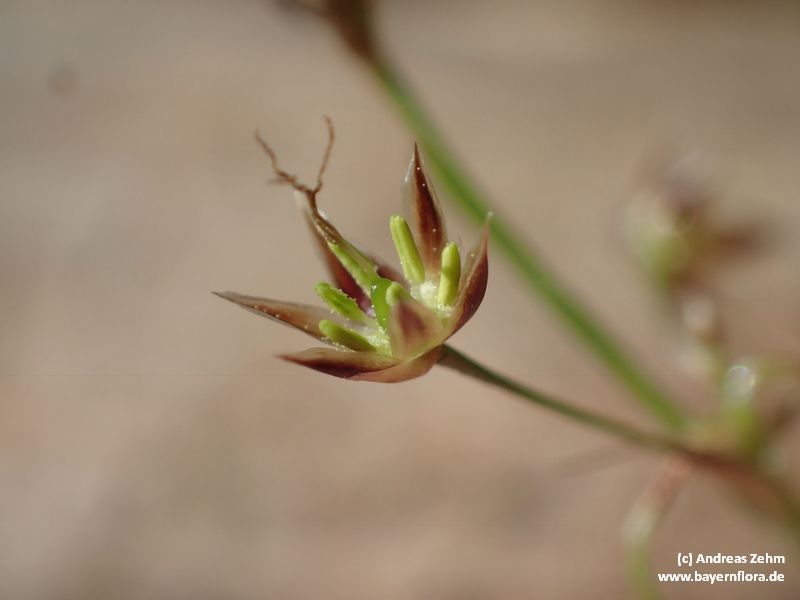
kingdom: Plantae
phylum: Tracheophyta
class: Liliopsida
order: Poales
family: Juncaceae
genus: Luzula
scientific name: Luzula pilosa
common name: Hairy wood-rush
